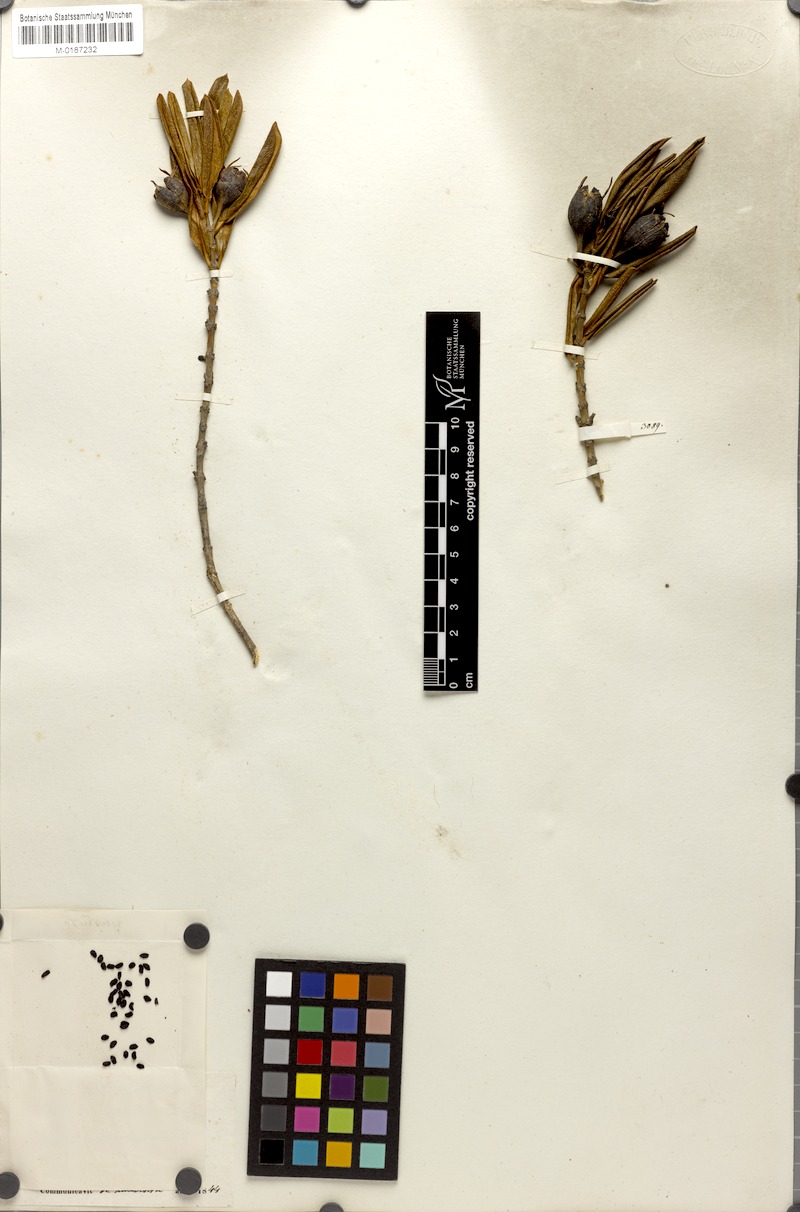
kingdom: Plantae
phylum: Tracheophyta
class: Magnoliopsida
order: Gentianales
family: Rubiaceae
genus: Nernstia
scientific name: Nernstia mexicana
